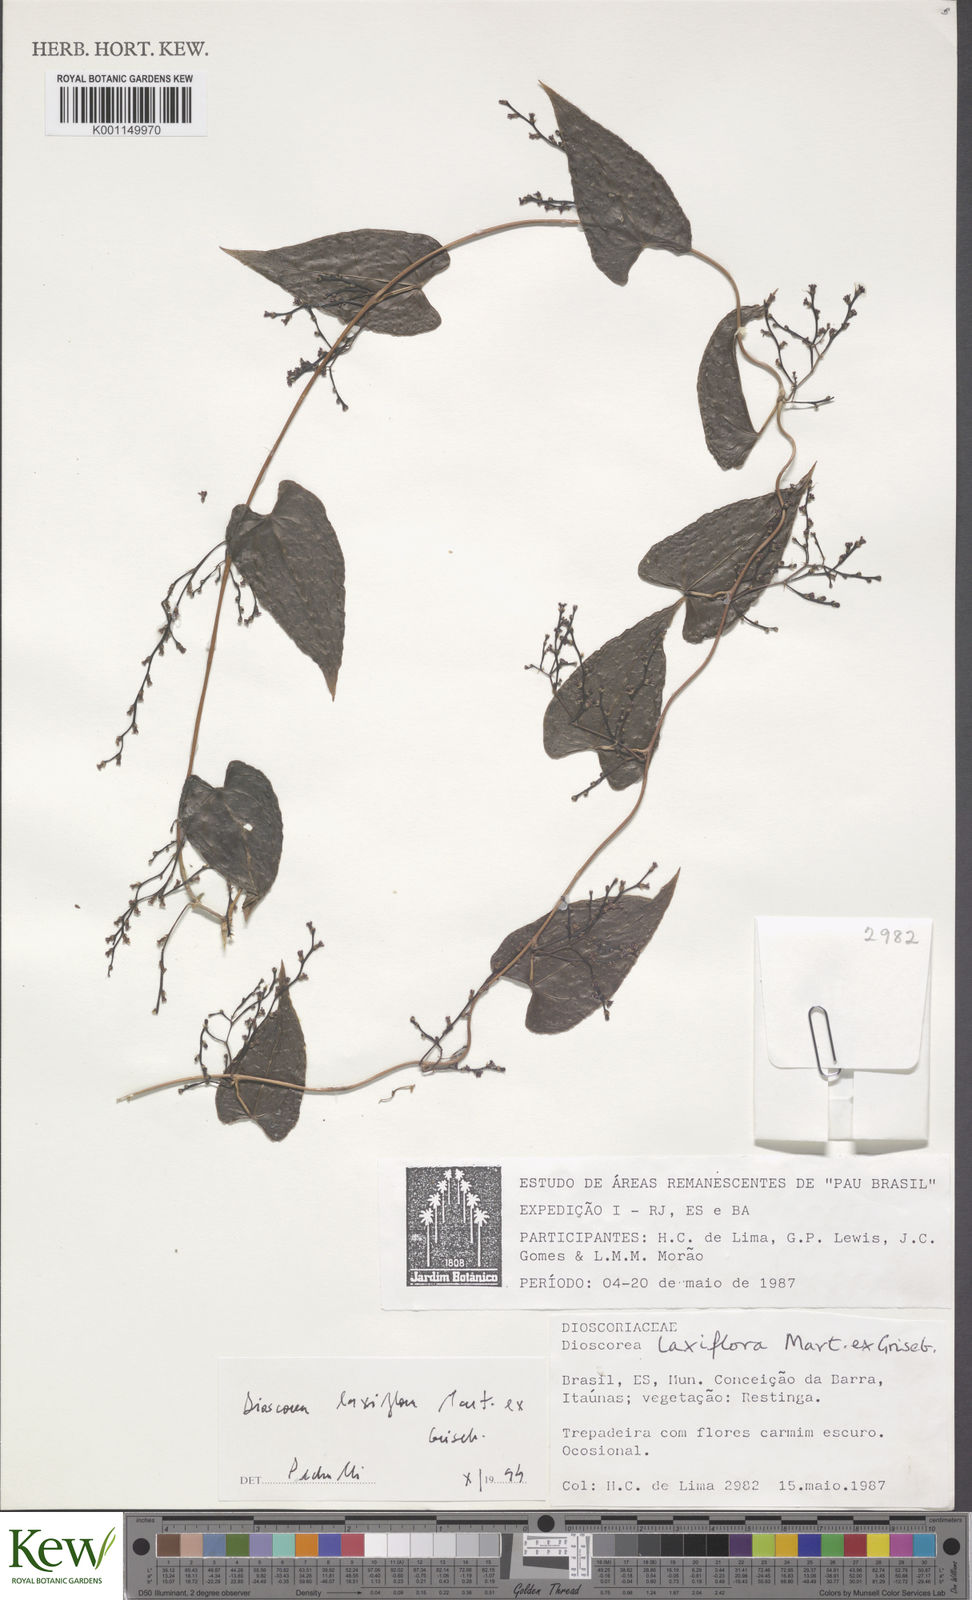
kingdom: Plantae
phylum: Tracheophyta
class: Liliopsida
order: Dioscoreales
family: Dioscoreaceae
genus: Dioscorea
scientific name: Dioscorea laxiflora
